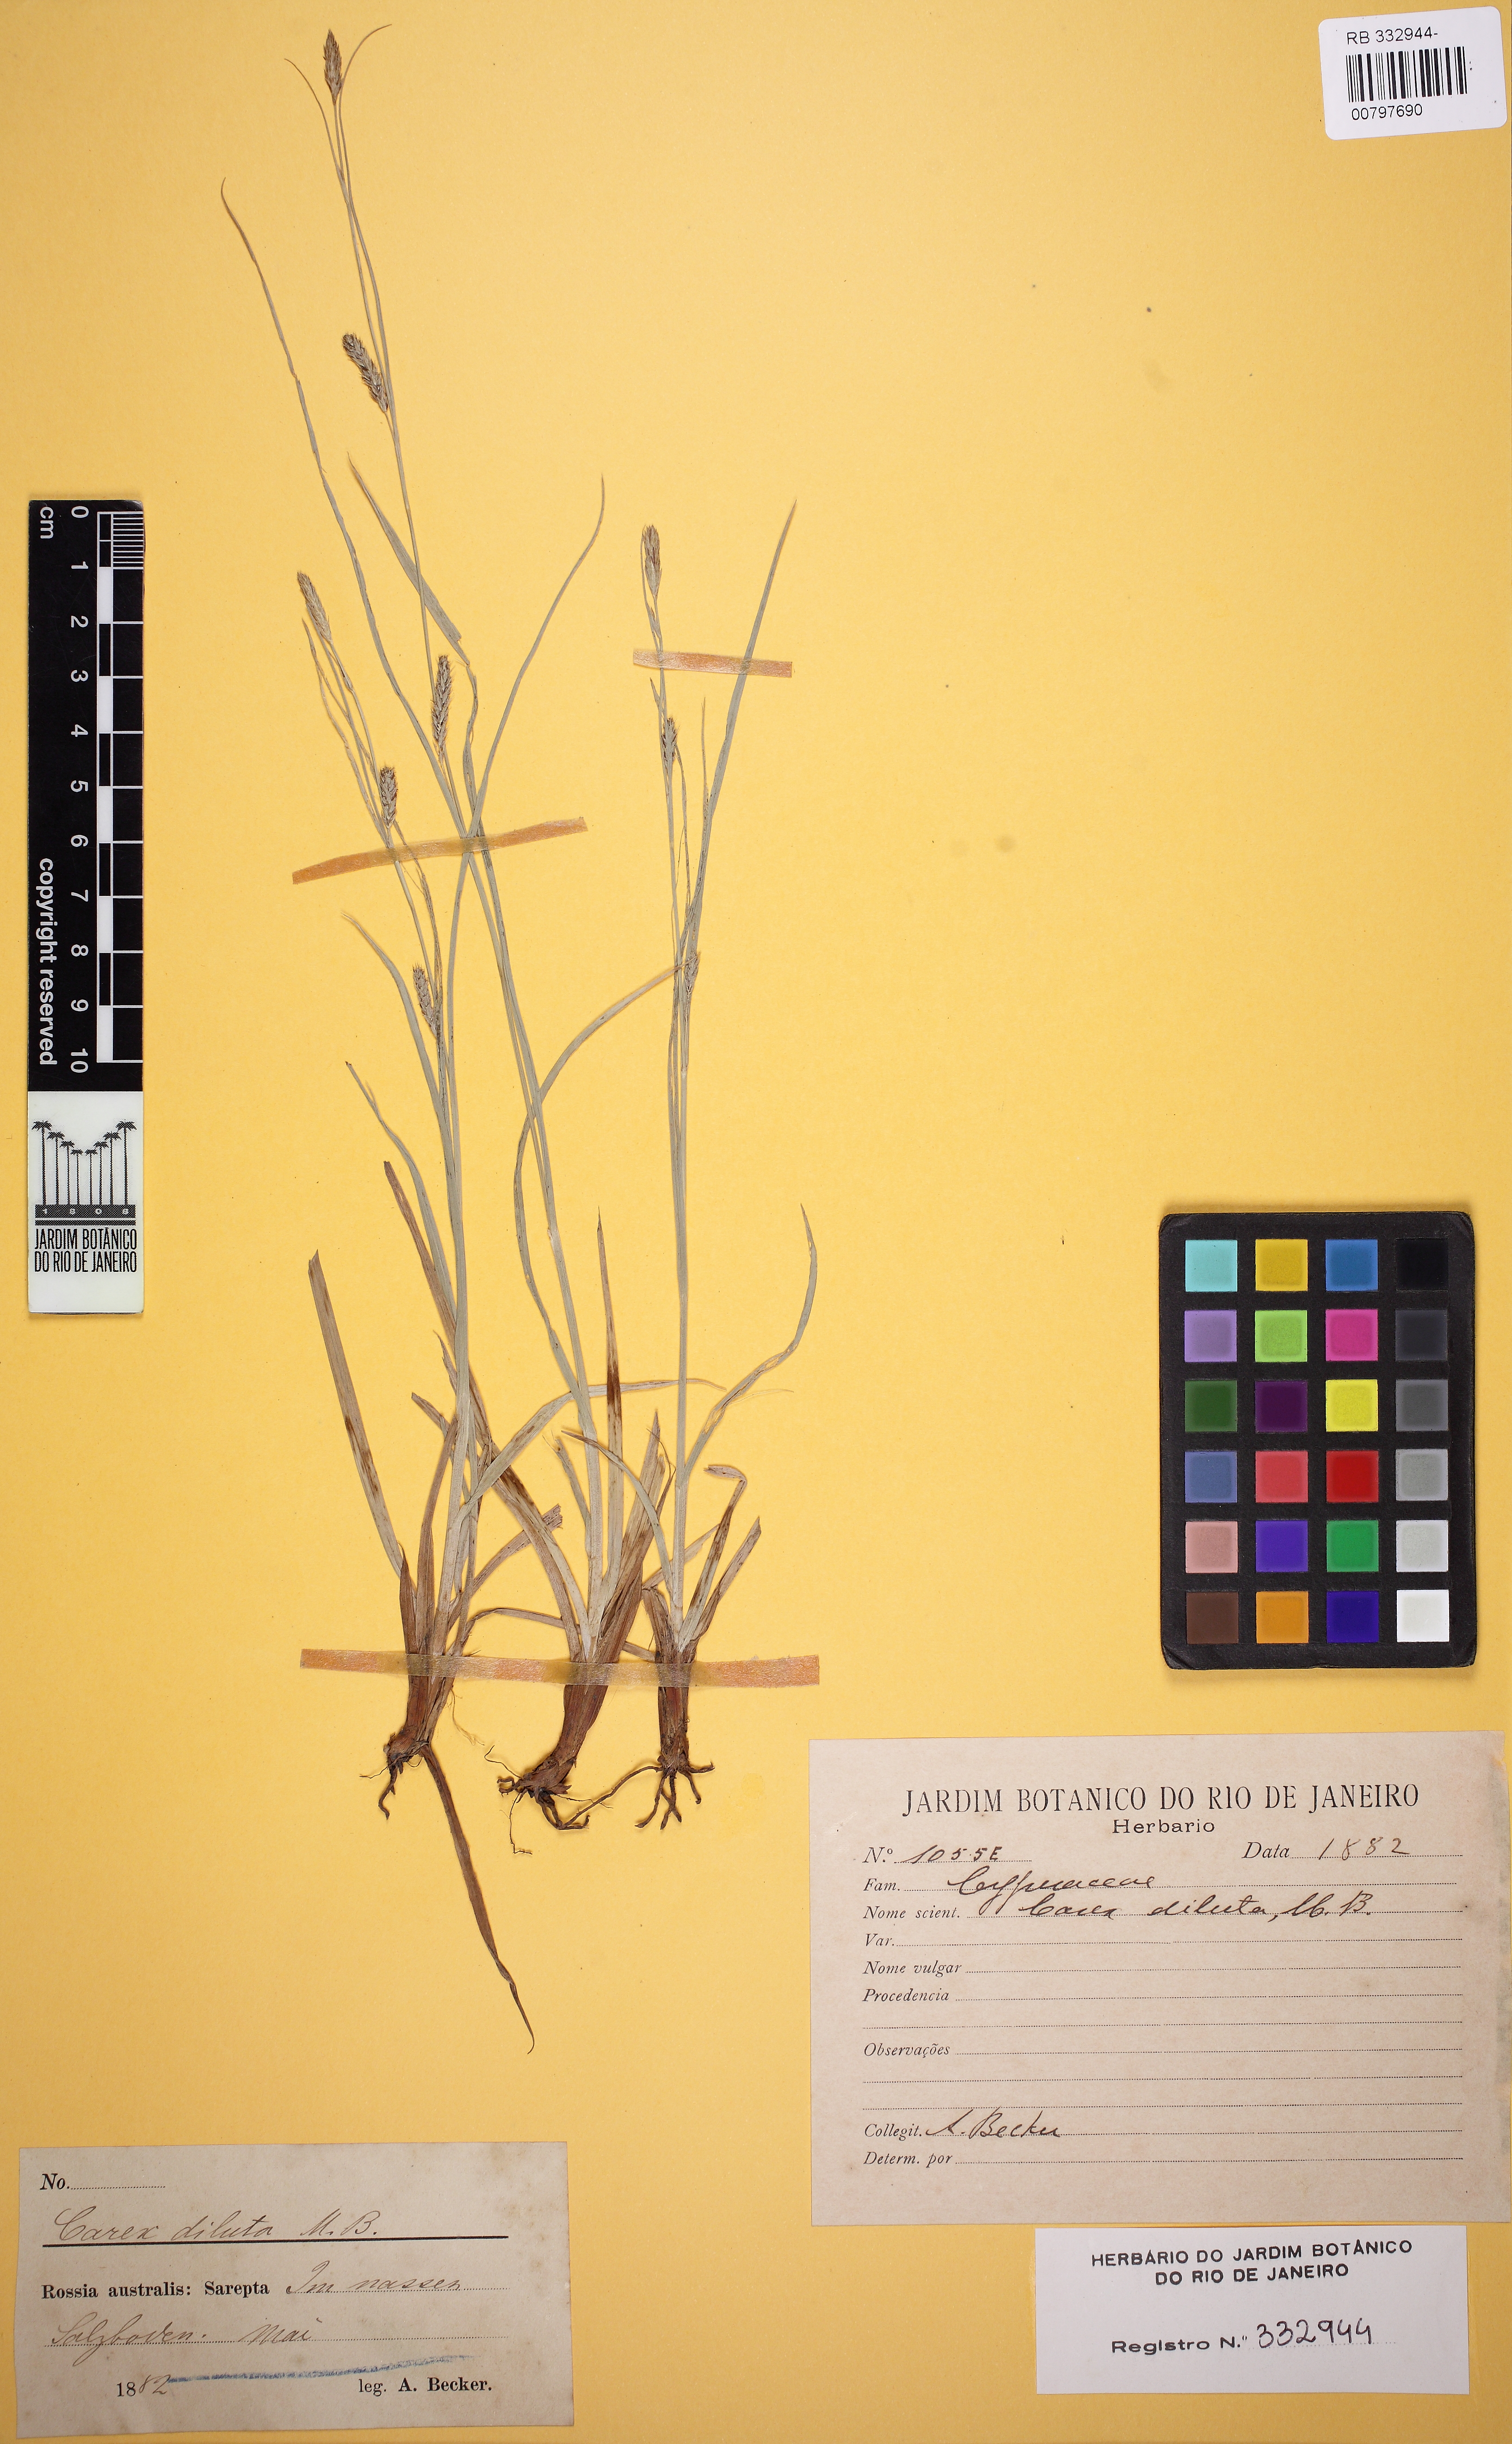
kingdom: Plantae
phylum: Tracheophyta
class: Liliopsida
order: Poales
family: Cyperaceae
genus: Carex
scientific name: Carex diluta
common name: Sedge
